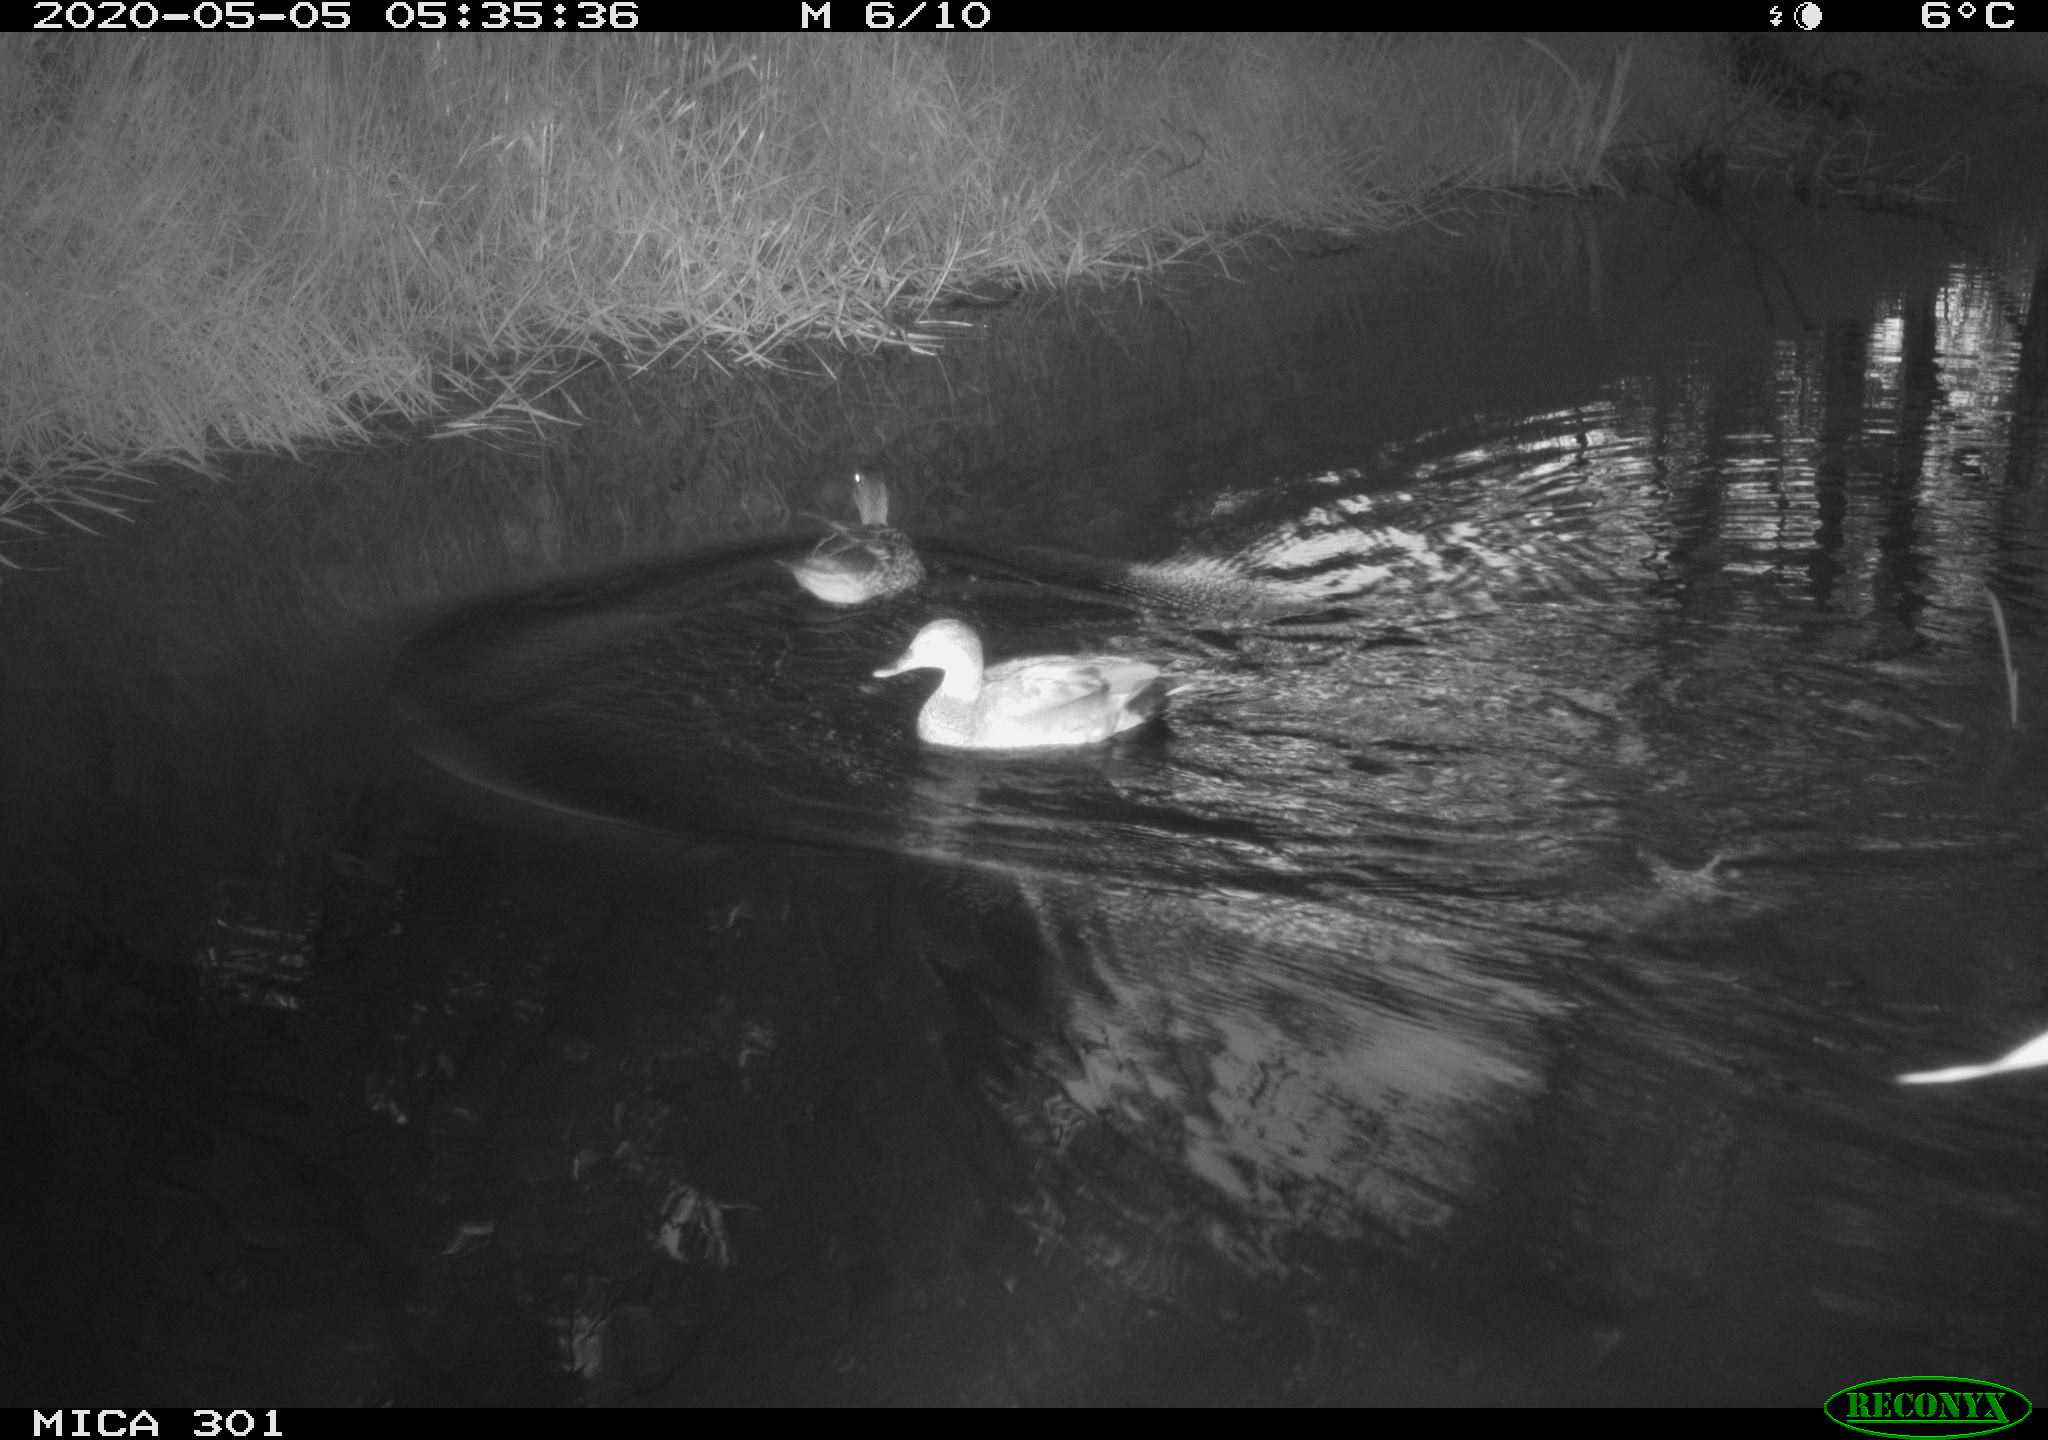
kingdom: Animalia
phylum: Chordata
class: Aves
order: Anseriformes
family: Anatidae
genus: Mareca
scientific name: Mareca strepera
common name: Gadwall
